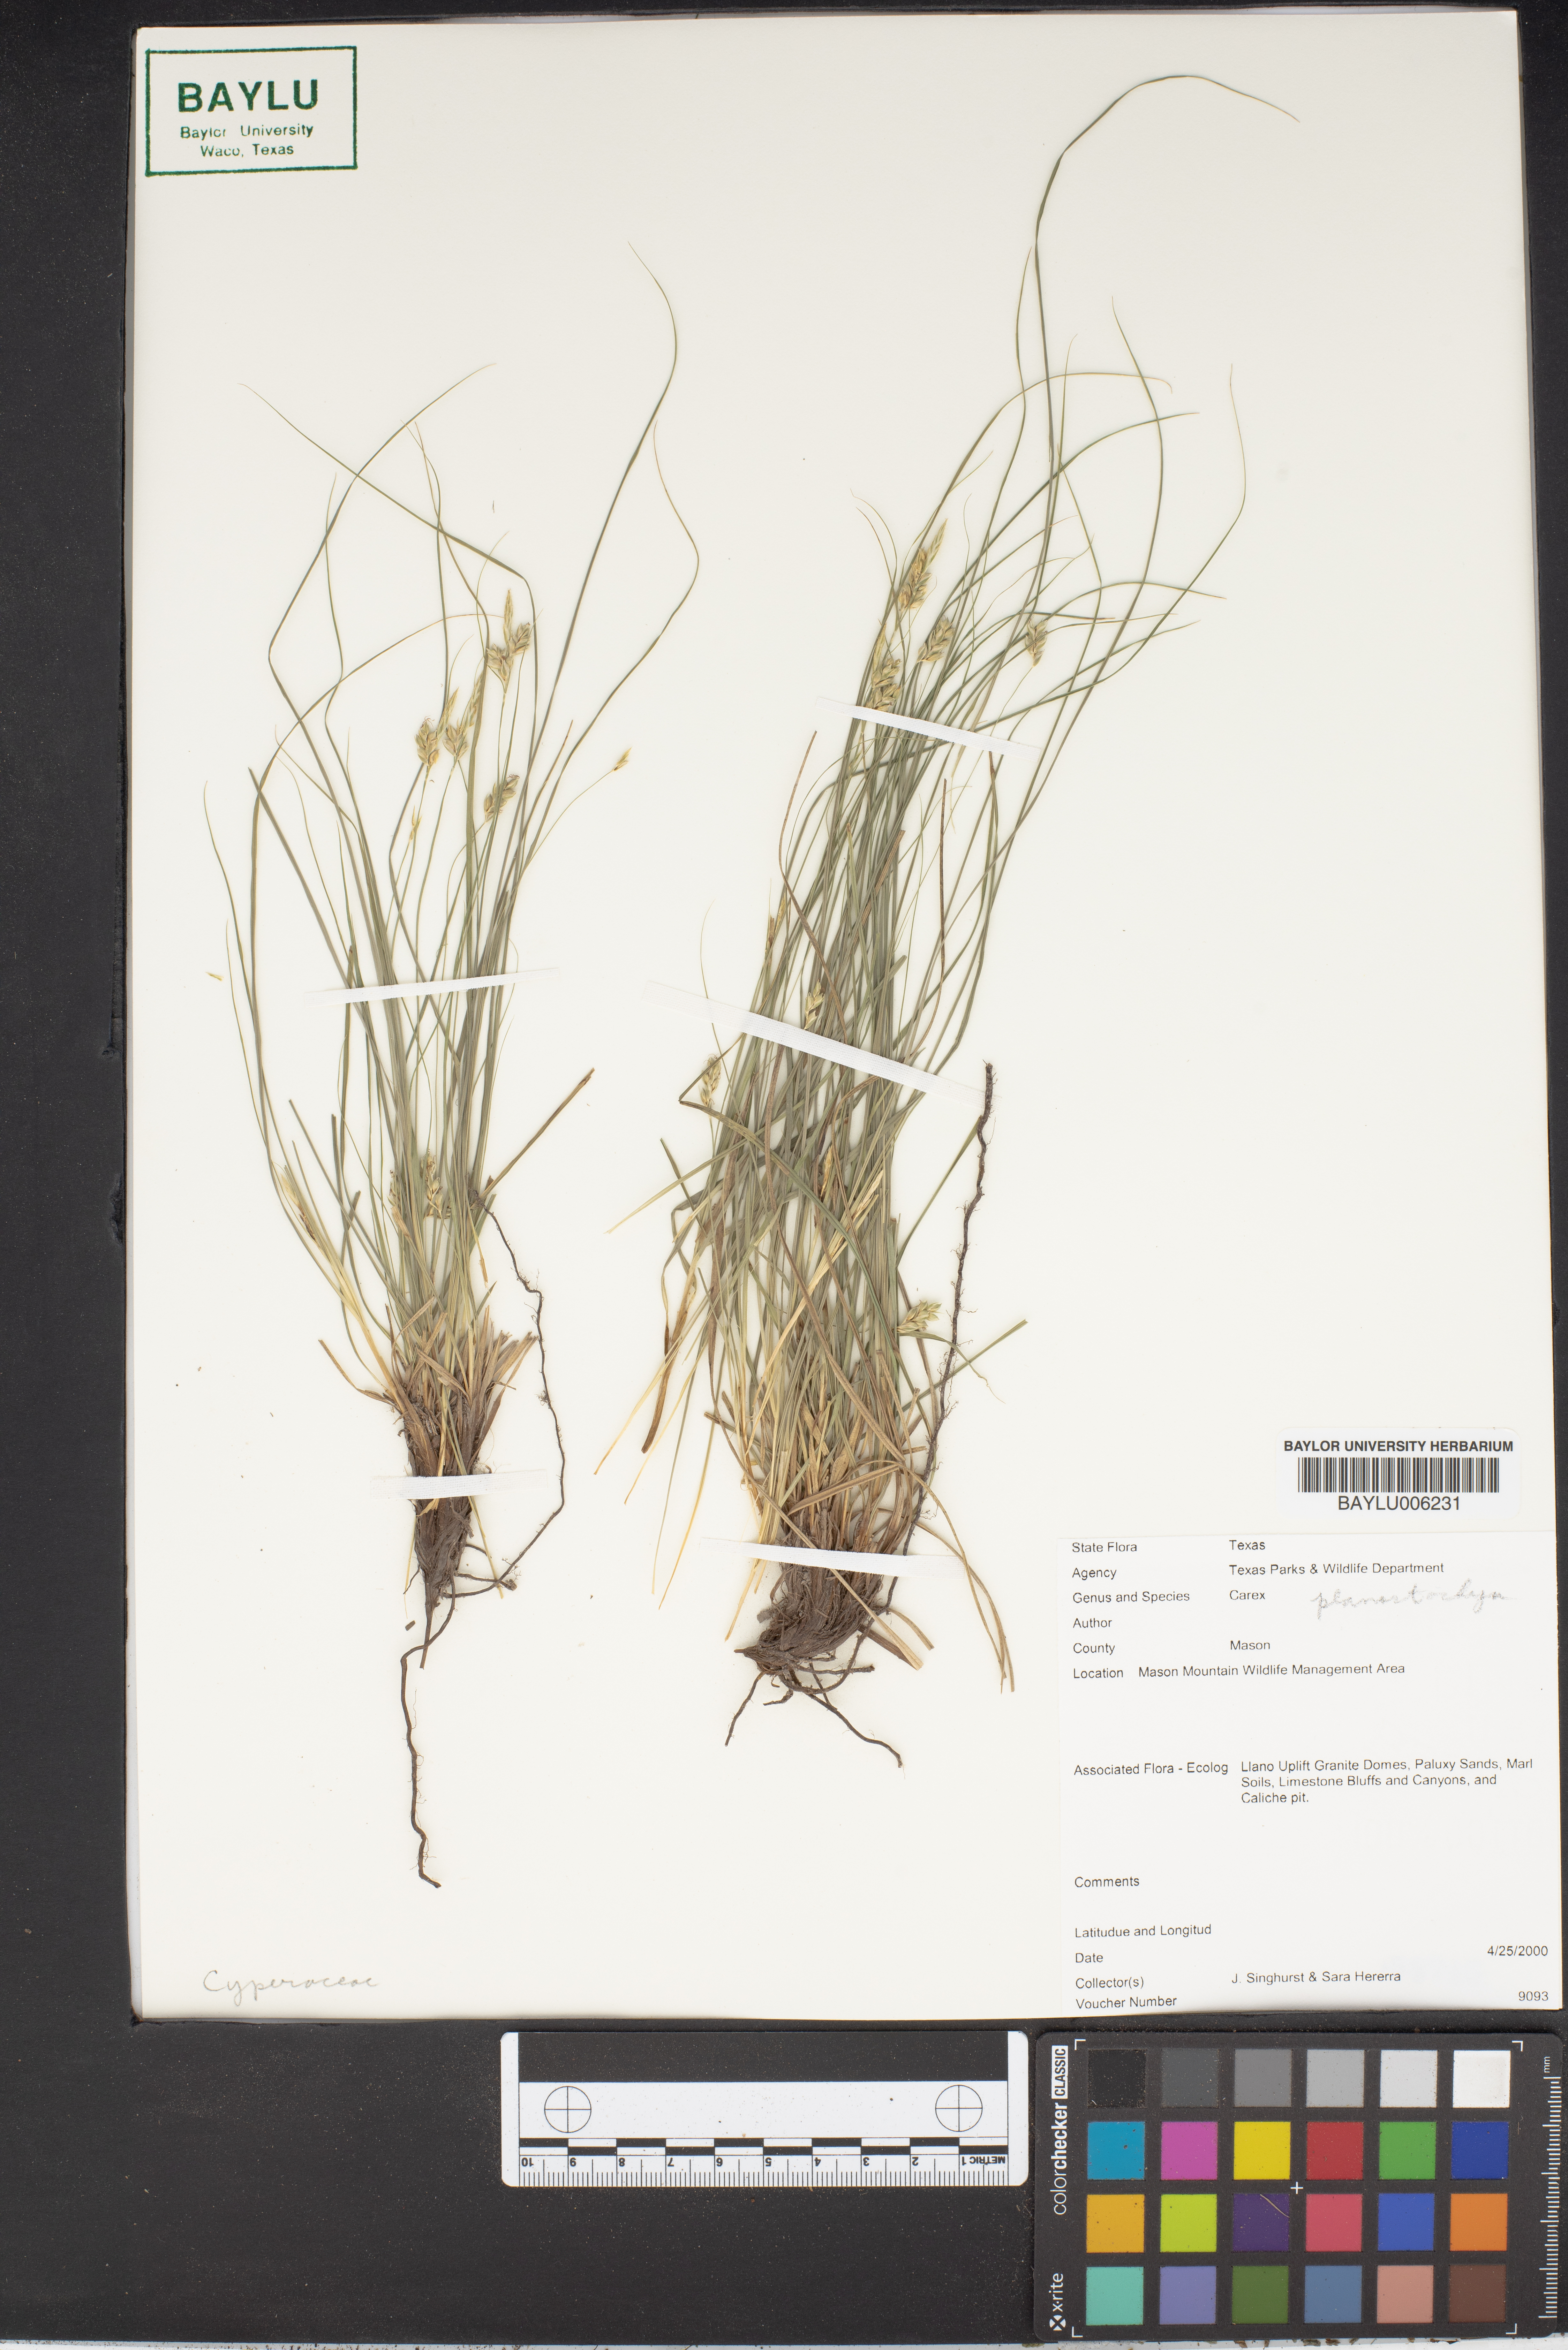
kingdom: Plantae
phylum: Tracheophyta
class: Liliopsida
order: Poales
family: Cyperaceae
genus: Carex
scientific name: Carex
